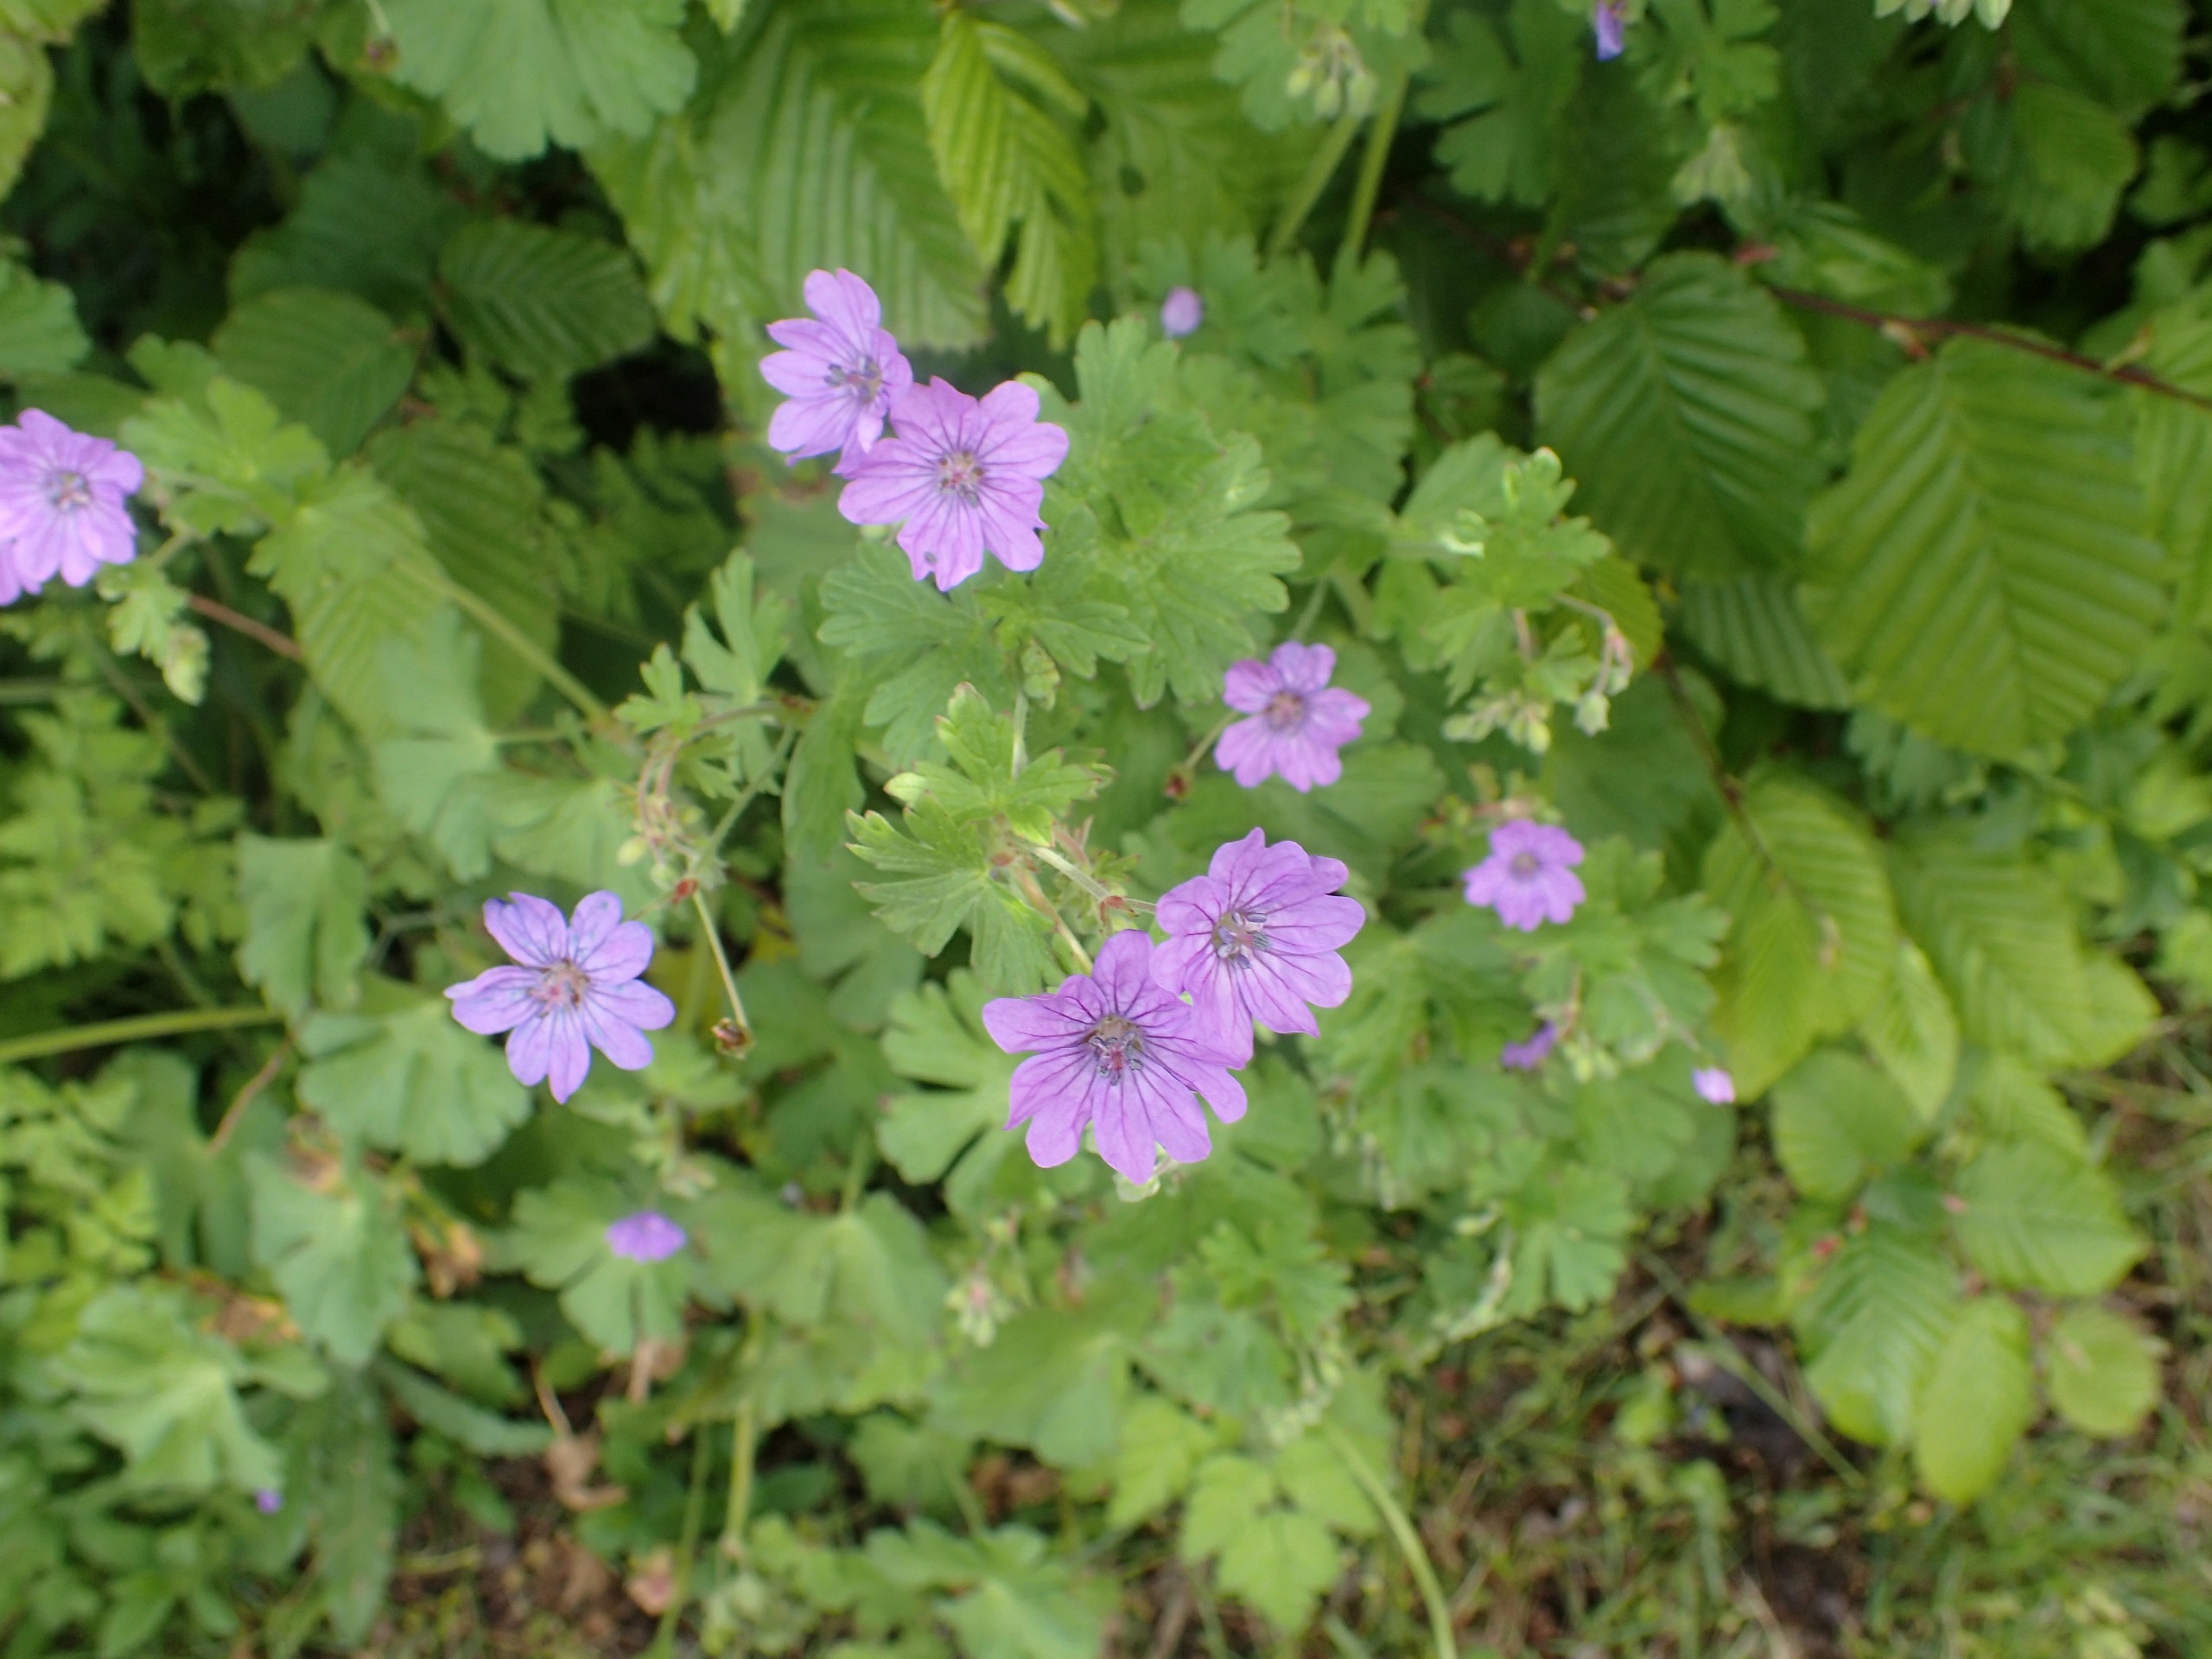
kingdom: Plantae
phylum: Tracheophyta
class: Magnoliopsida
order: Geraniales
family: Geraniaceae
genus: Geranium
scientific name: Geranium pyrenaicum
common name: Pyrenæisk storkenæb
